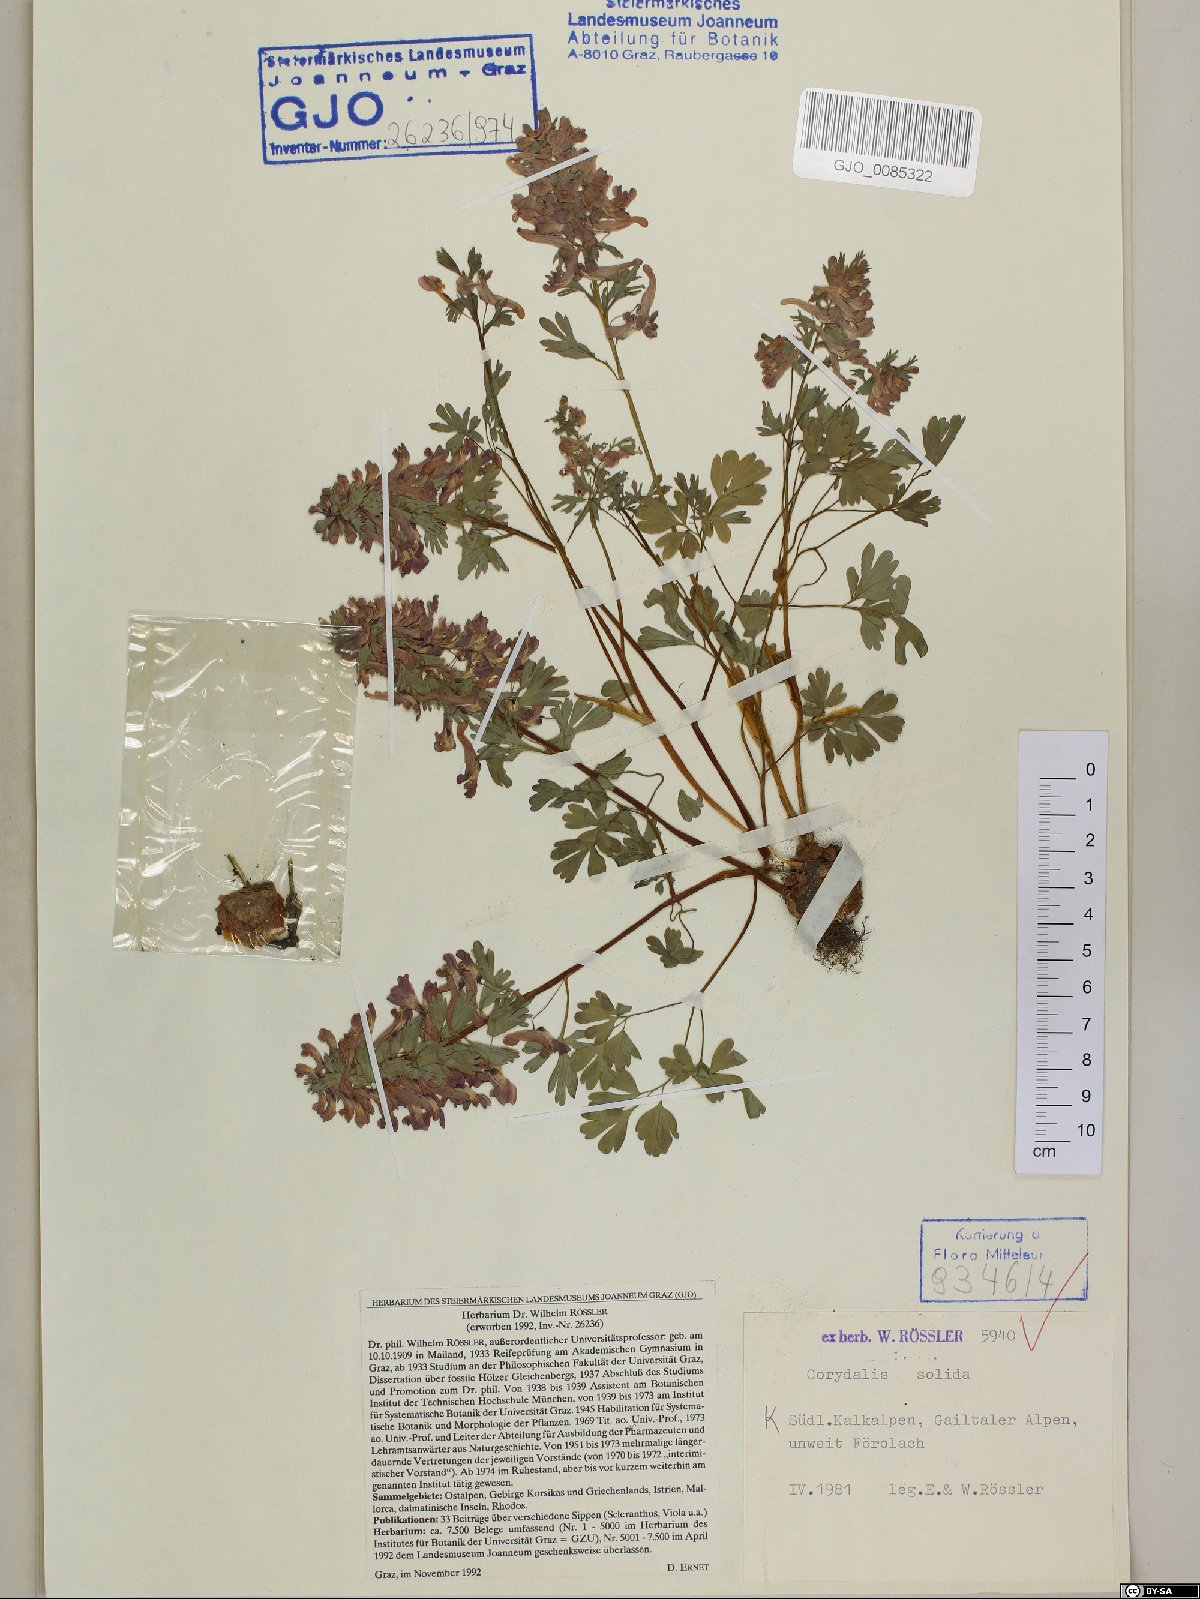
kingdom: Plantae
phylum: Tracheophyta
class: Magnoliopsida
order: Ranunculales
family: Papaveraceae
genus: Corydalis
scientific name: Corydalis solida
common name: Bird-in-a-bush
